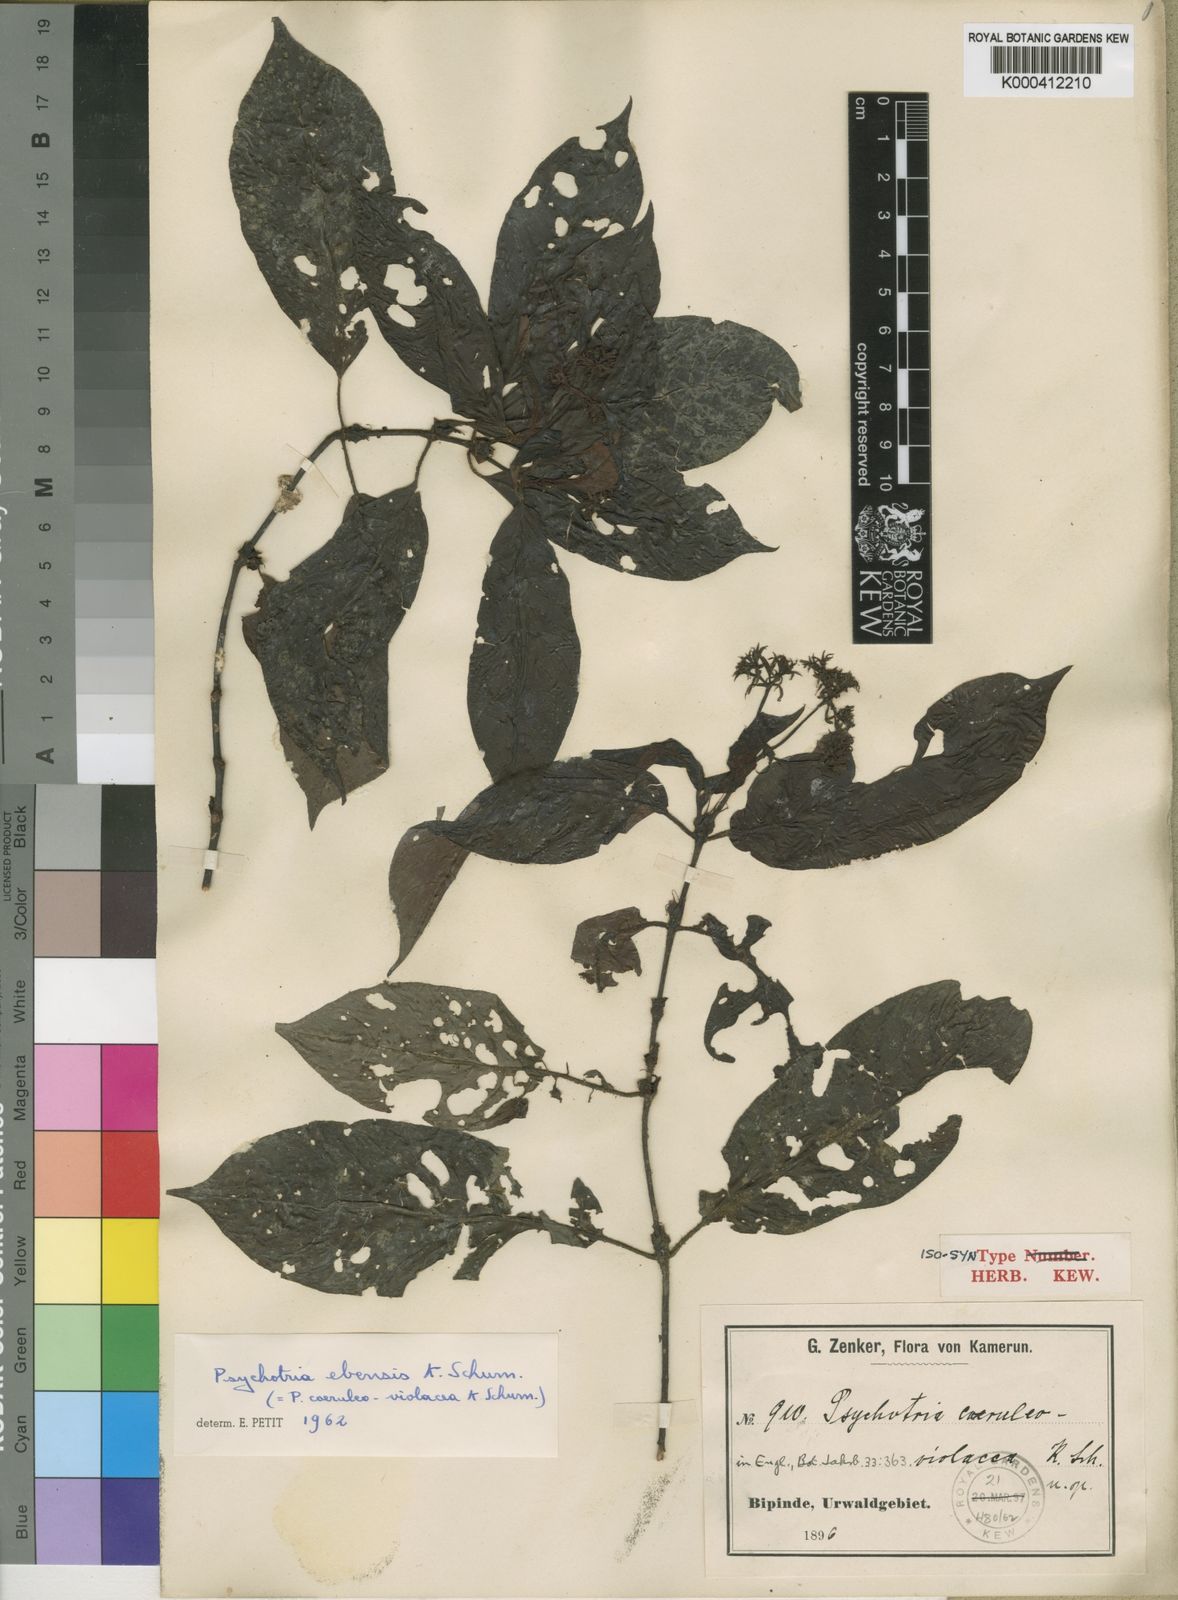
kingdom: Plantae
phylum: Tracheophyta
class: Magnoliopsida
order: Gentianales
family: Rubiaceae
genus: Psychotria
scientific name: Psychotria ebensis
